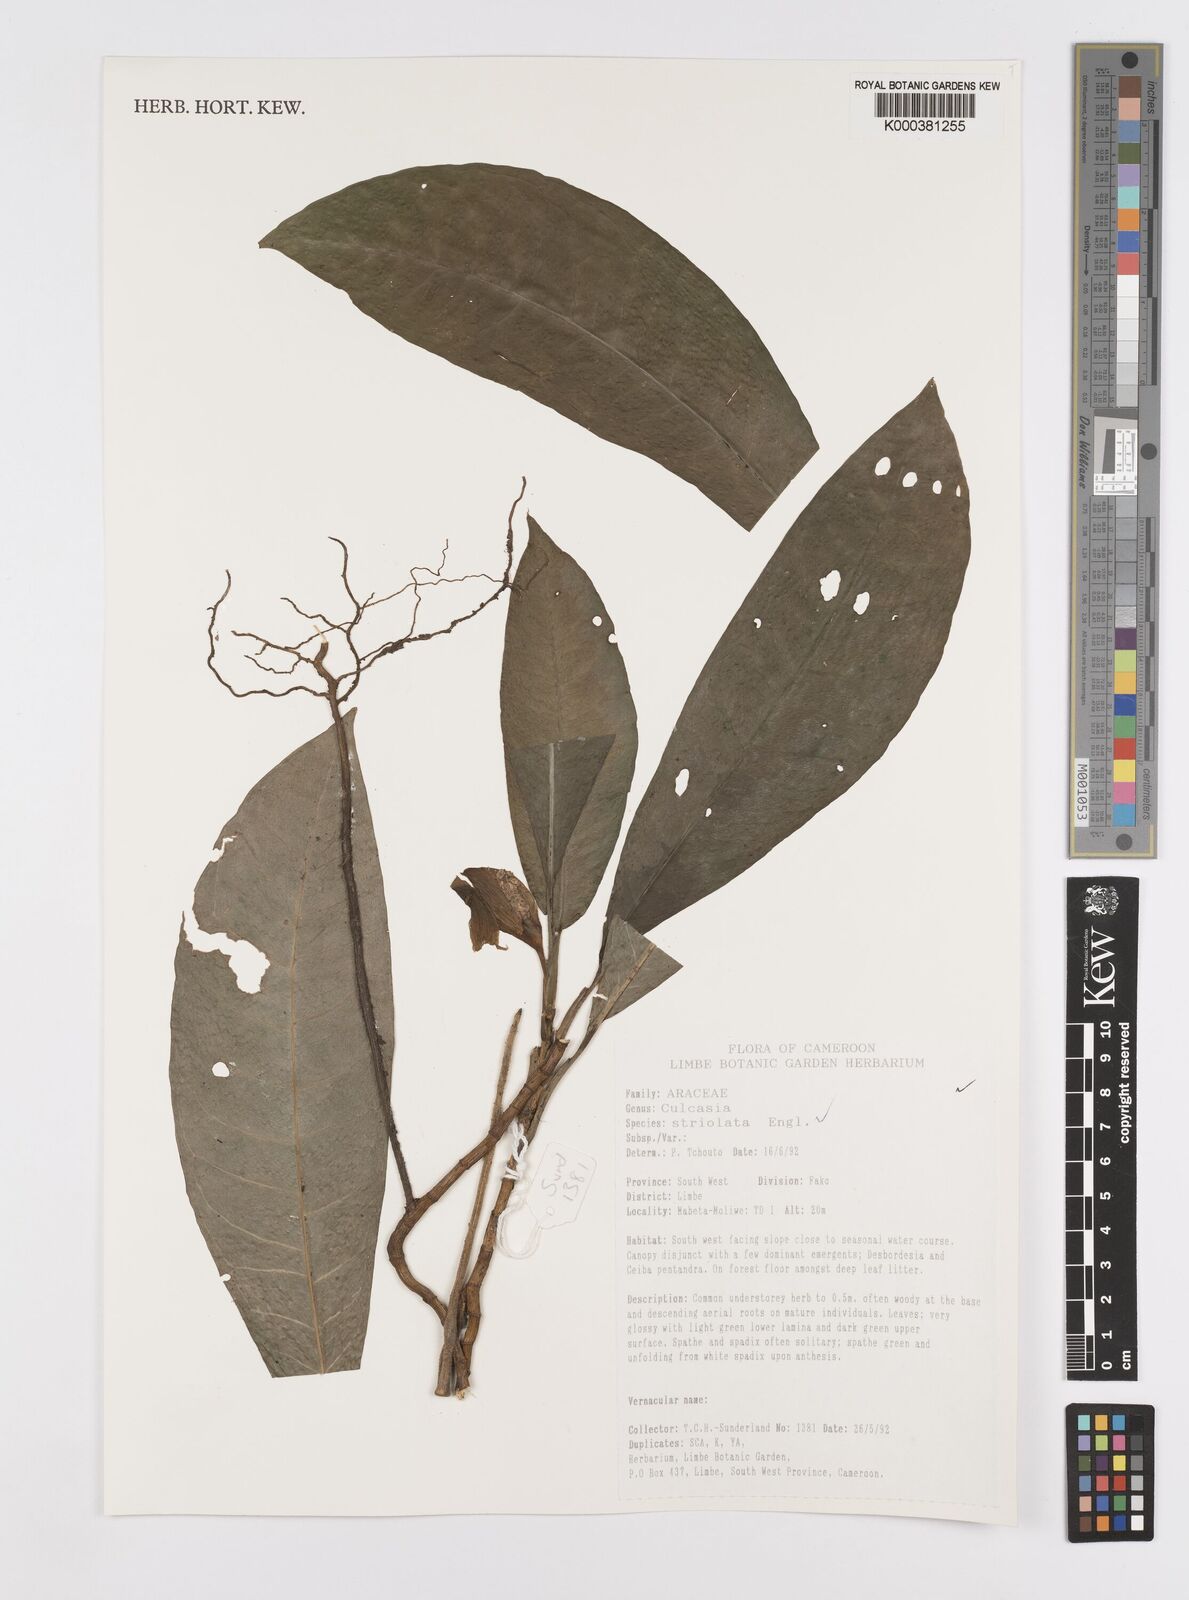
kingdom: Plantae
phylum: Tracheophyta
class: Liliopsida
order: Alismatales
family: Araceae
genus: Culcasia
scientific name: Culcasia striolata
